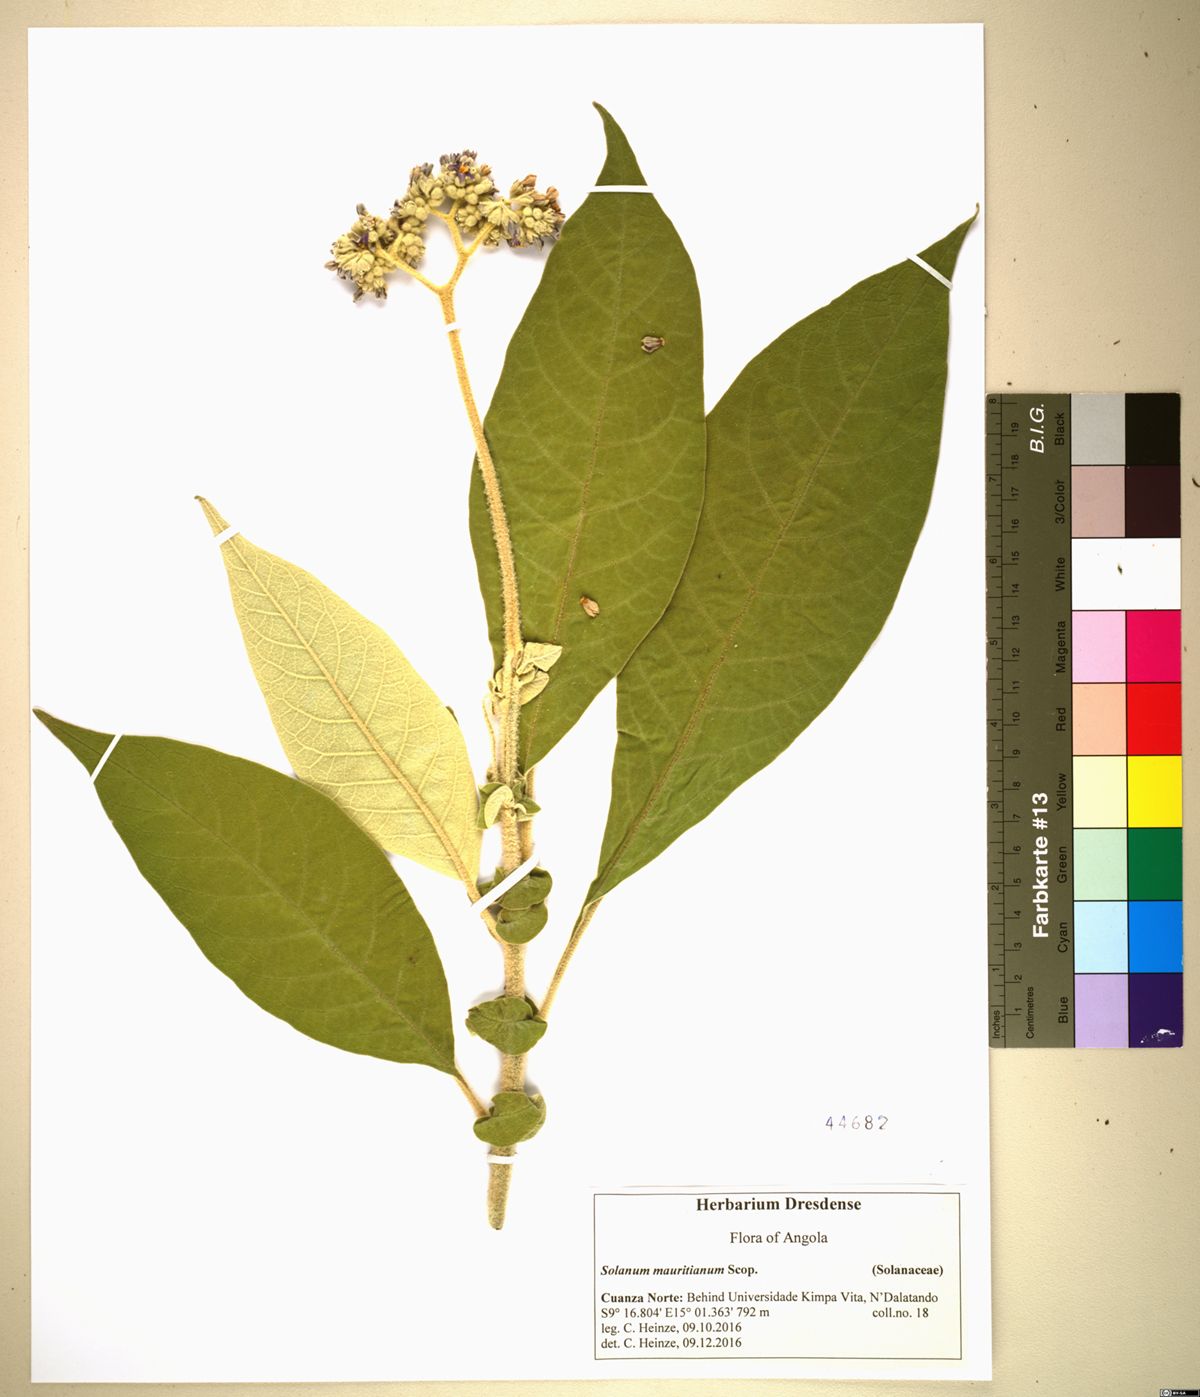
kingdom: Plantae
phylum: Tracheophyta
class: Magnoliopsida
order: Solanales
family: Solanaceae
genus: Solanum
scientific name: Solanum mauritianum
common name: Earleaf nightshade
